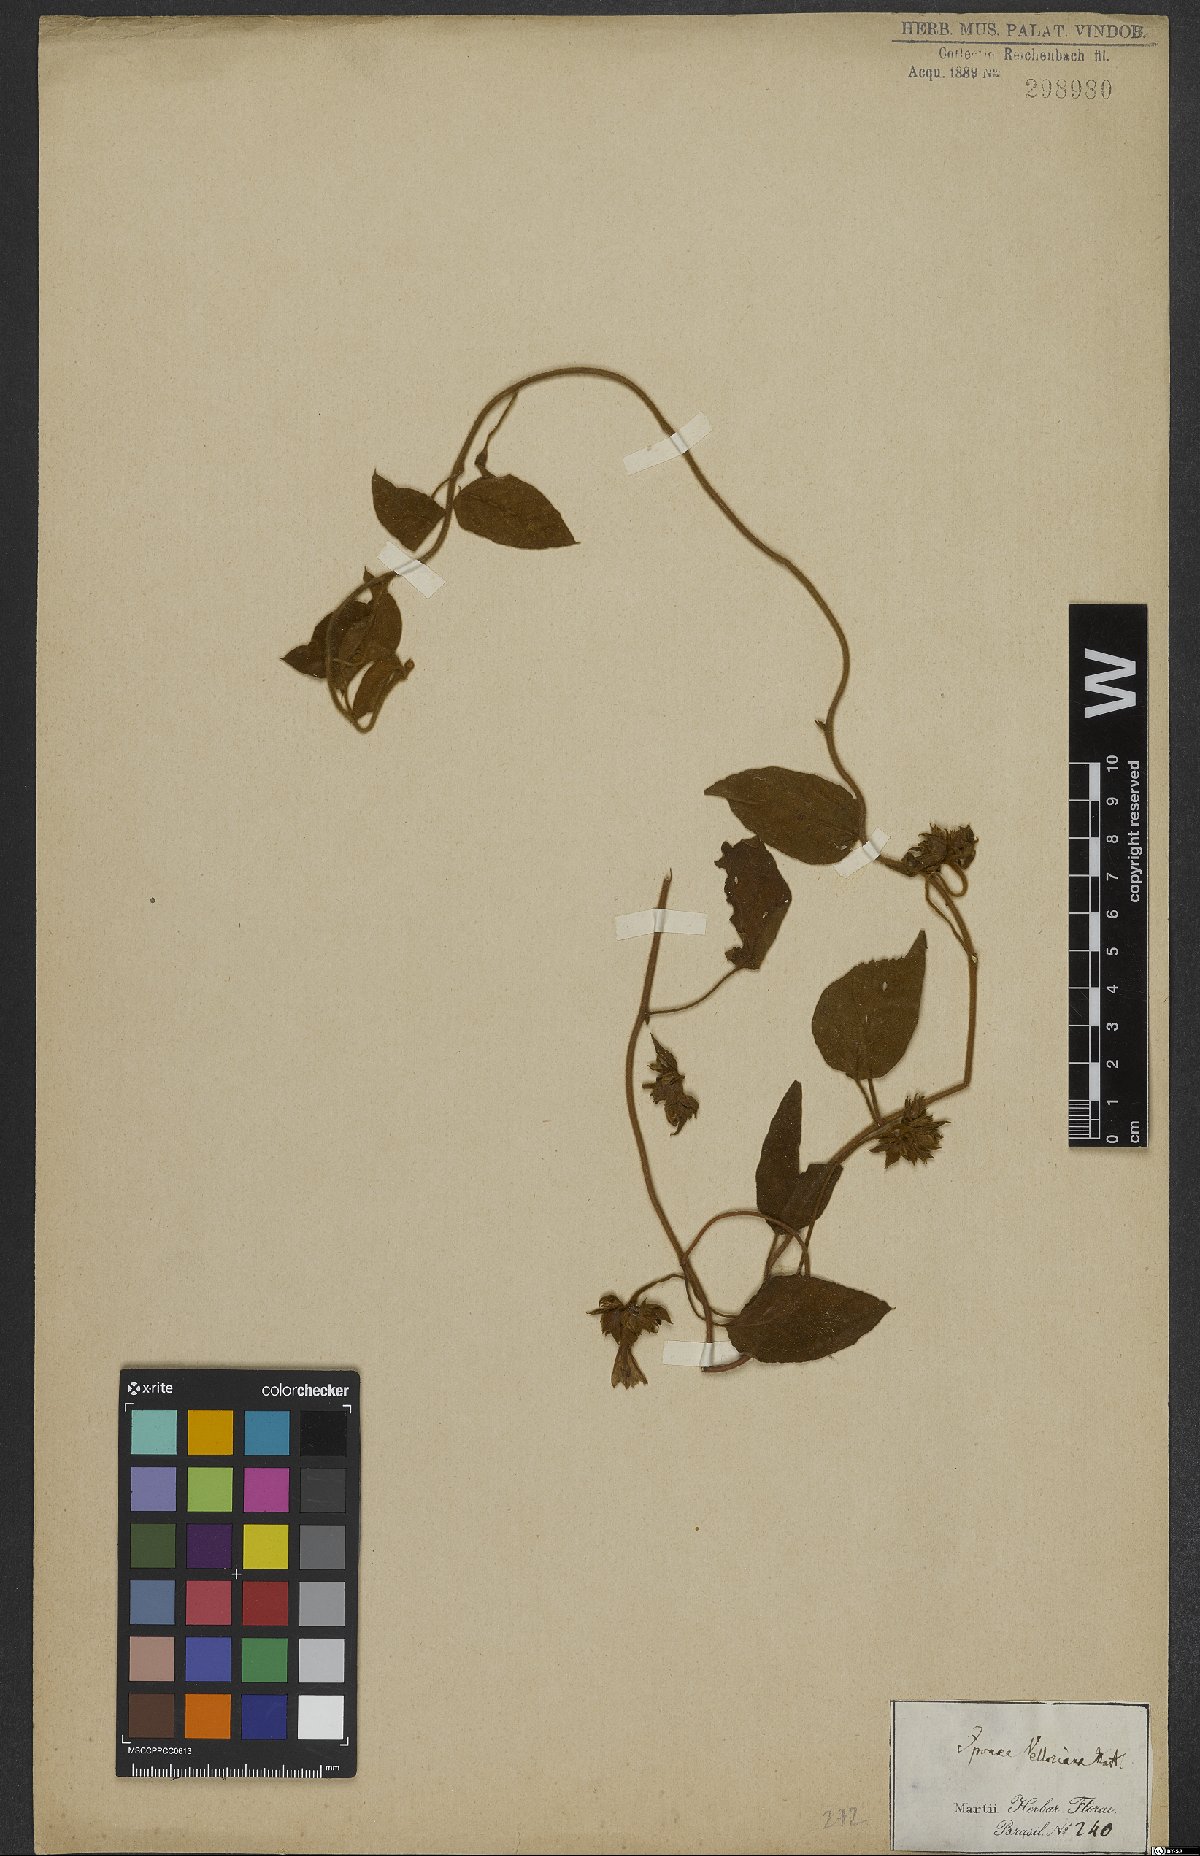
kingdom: Plantae
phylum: Tracheophyta
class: Magnoliopsida
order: Solanales
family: Convolvulaceae
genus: Jacquemontia
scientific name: Jacquemontia velloziana
